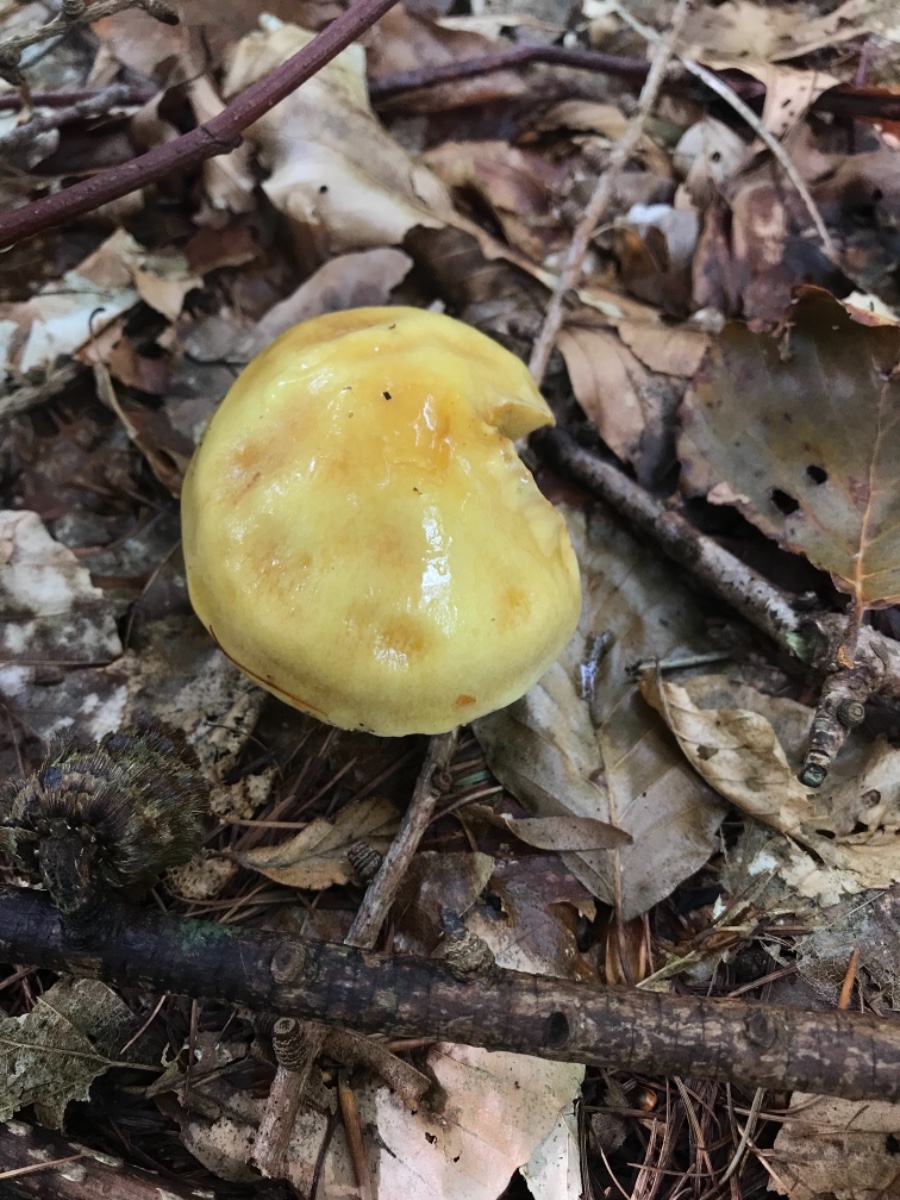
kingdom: Fungi
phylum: Basidiomycota
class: Agaricomycetes
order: Boletales
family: Suillaceae
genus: Suillus
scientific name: Suillus grevillei
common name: lærke-slimrørhat
